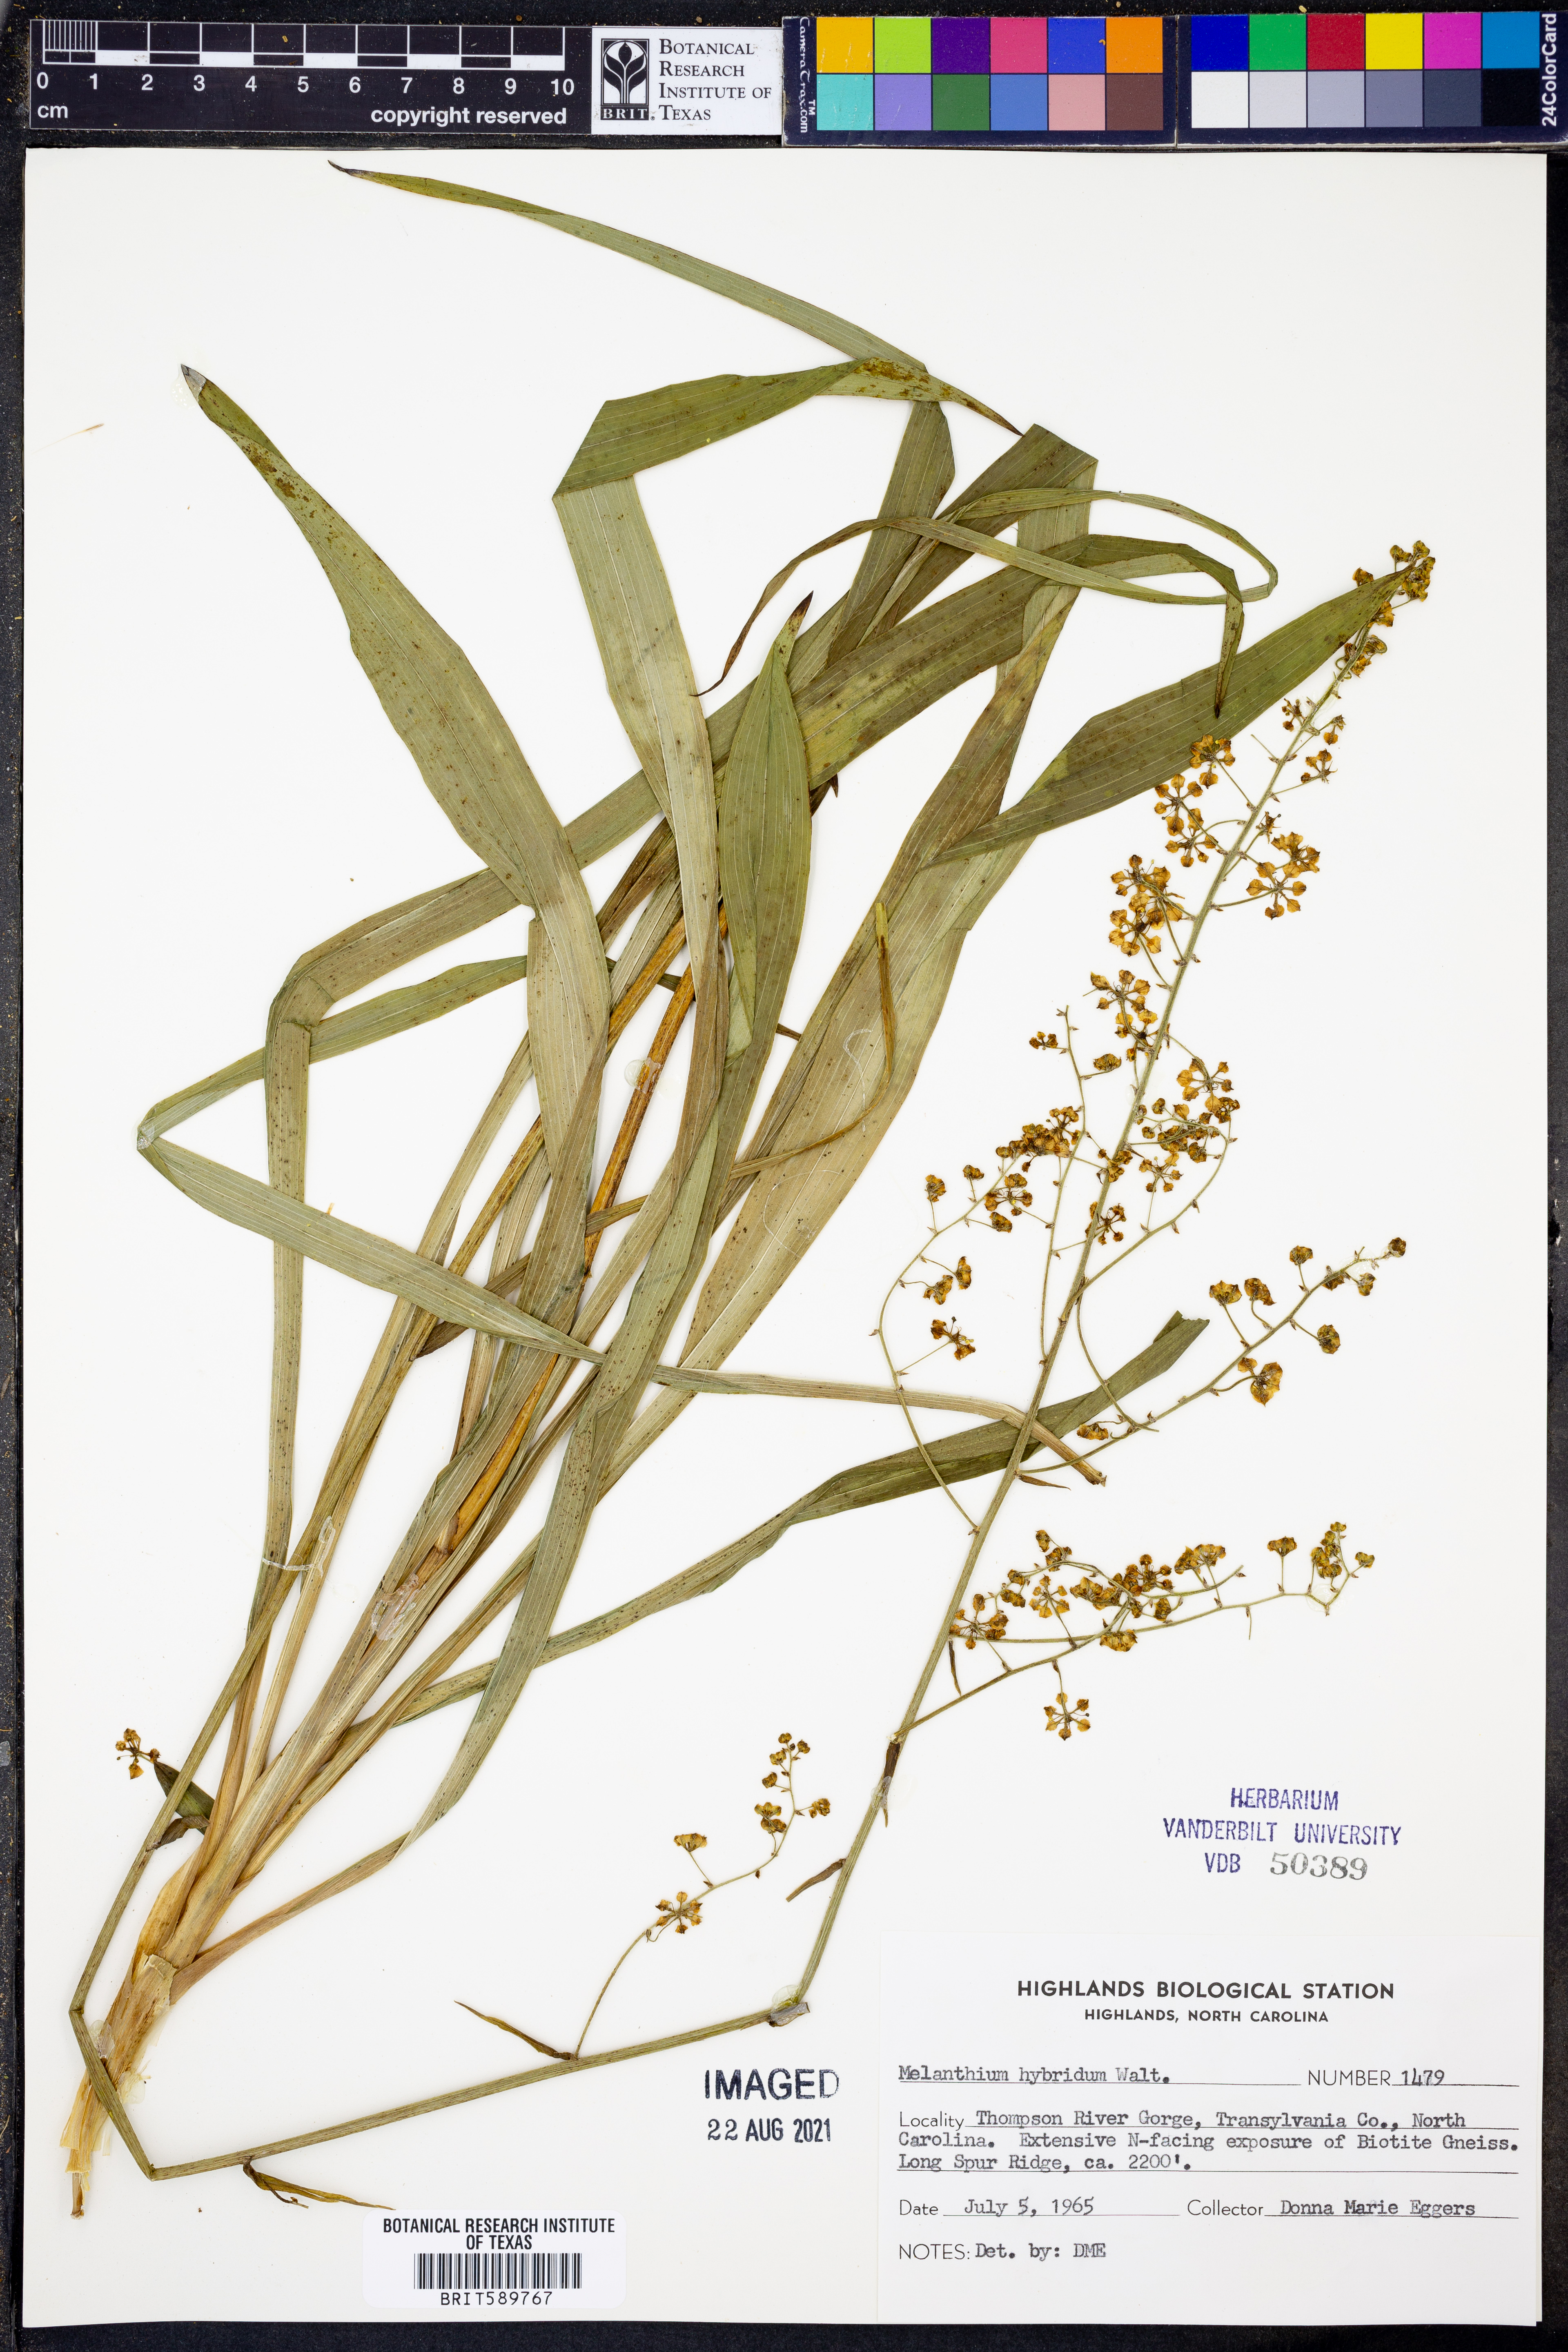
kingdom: Plantae
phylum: Tracheophyta
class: Liliopsida
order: Liliales
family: Melanthiaceae
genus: Melanthium
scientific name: Melanthium hybridum
